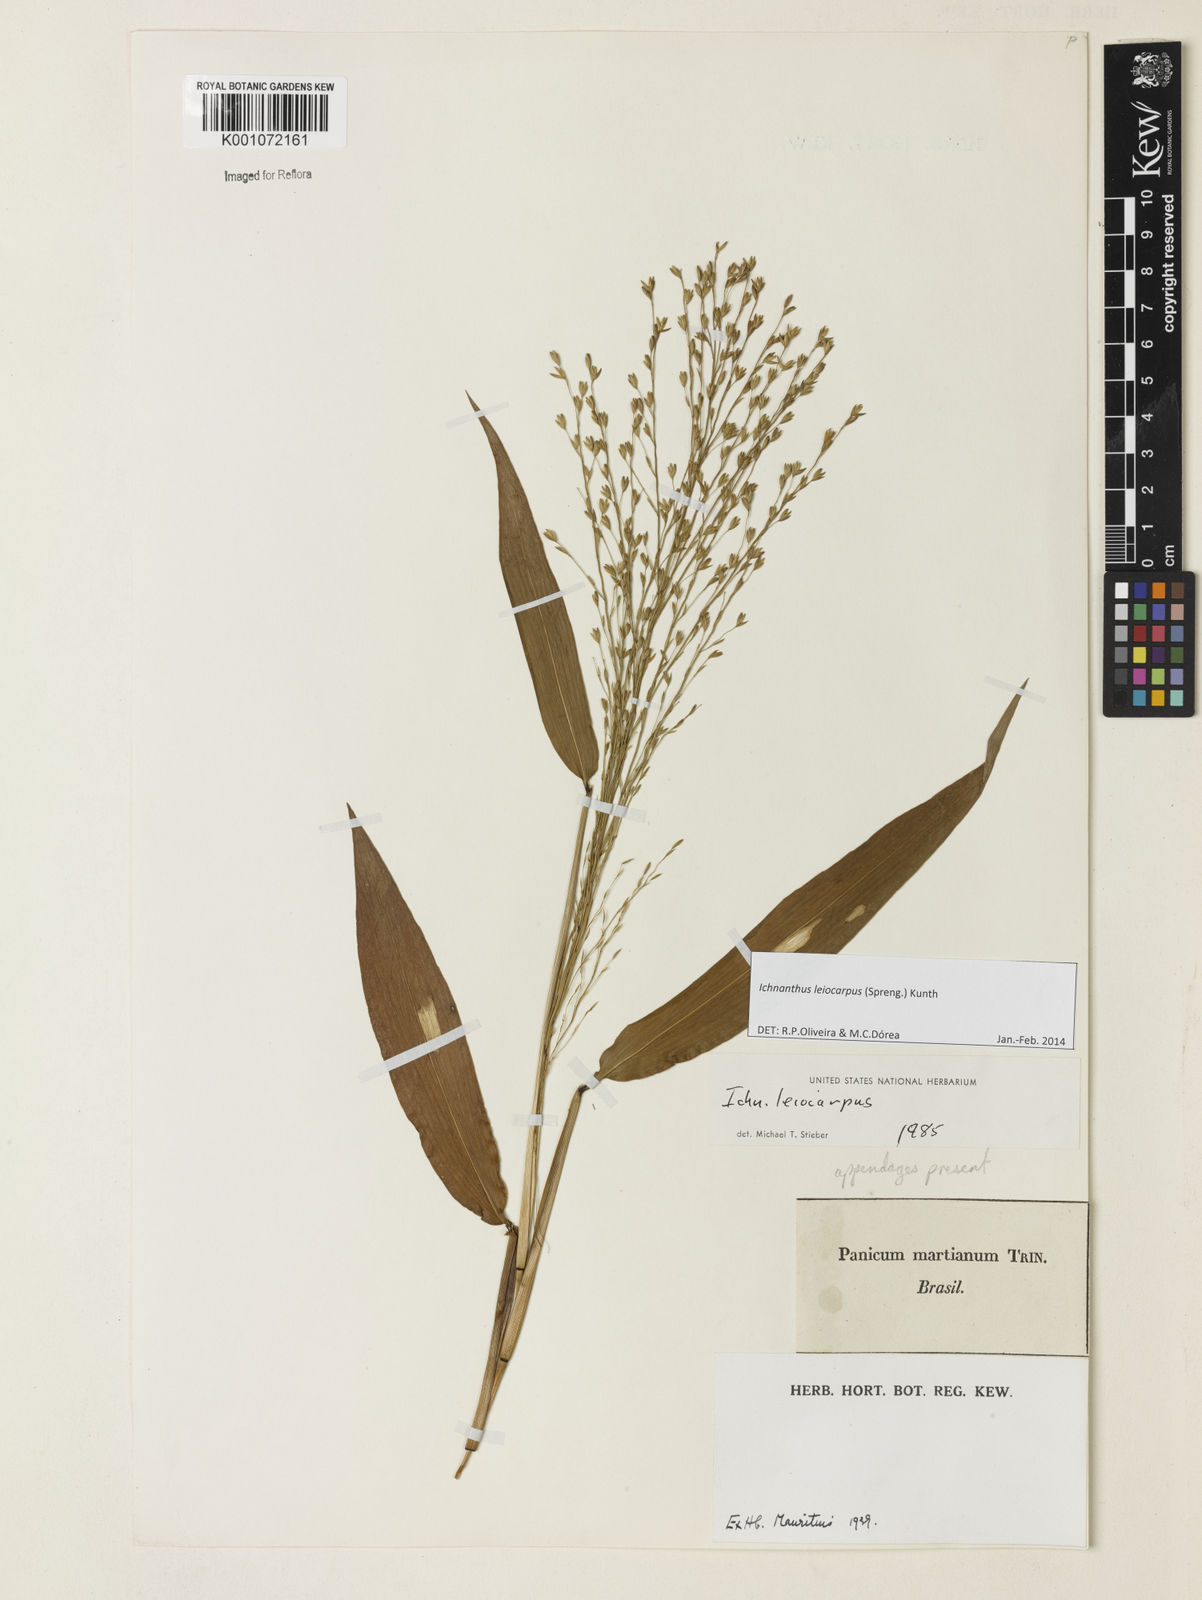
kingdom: Plantae
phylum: Tracheophyta
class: Liliopsida
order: Poales
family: Poaceae
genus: Ichnanthus
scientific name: Ichnanthus leiocarpus
